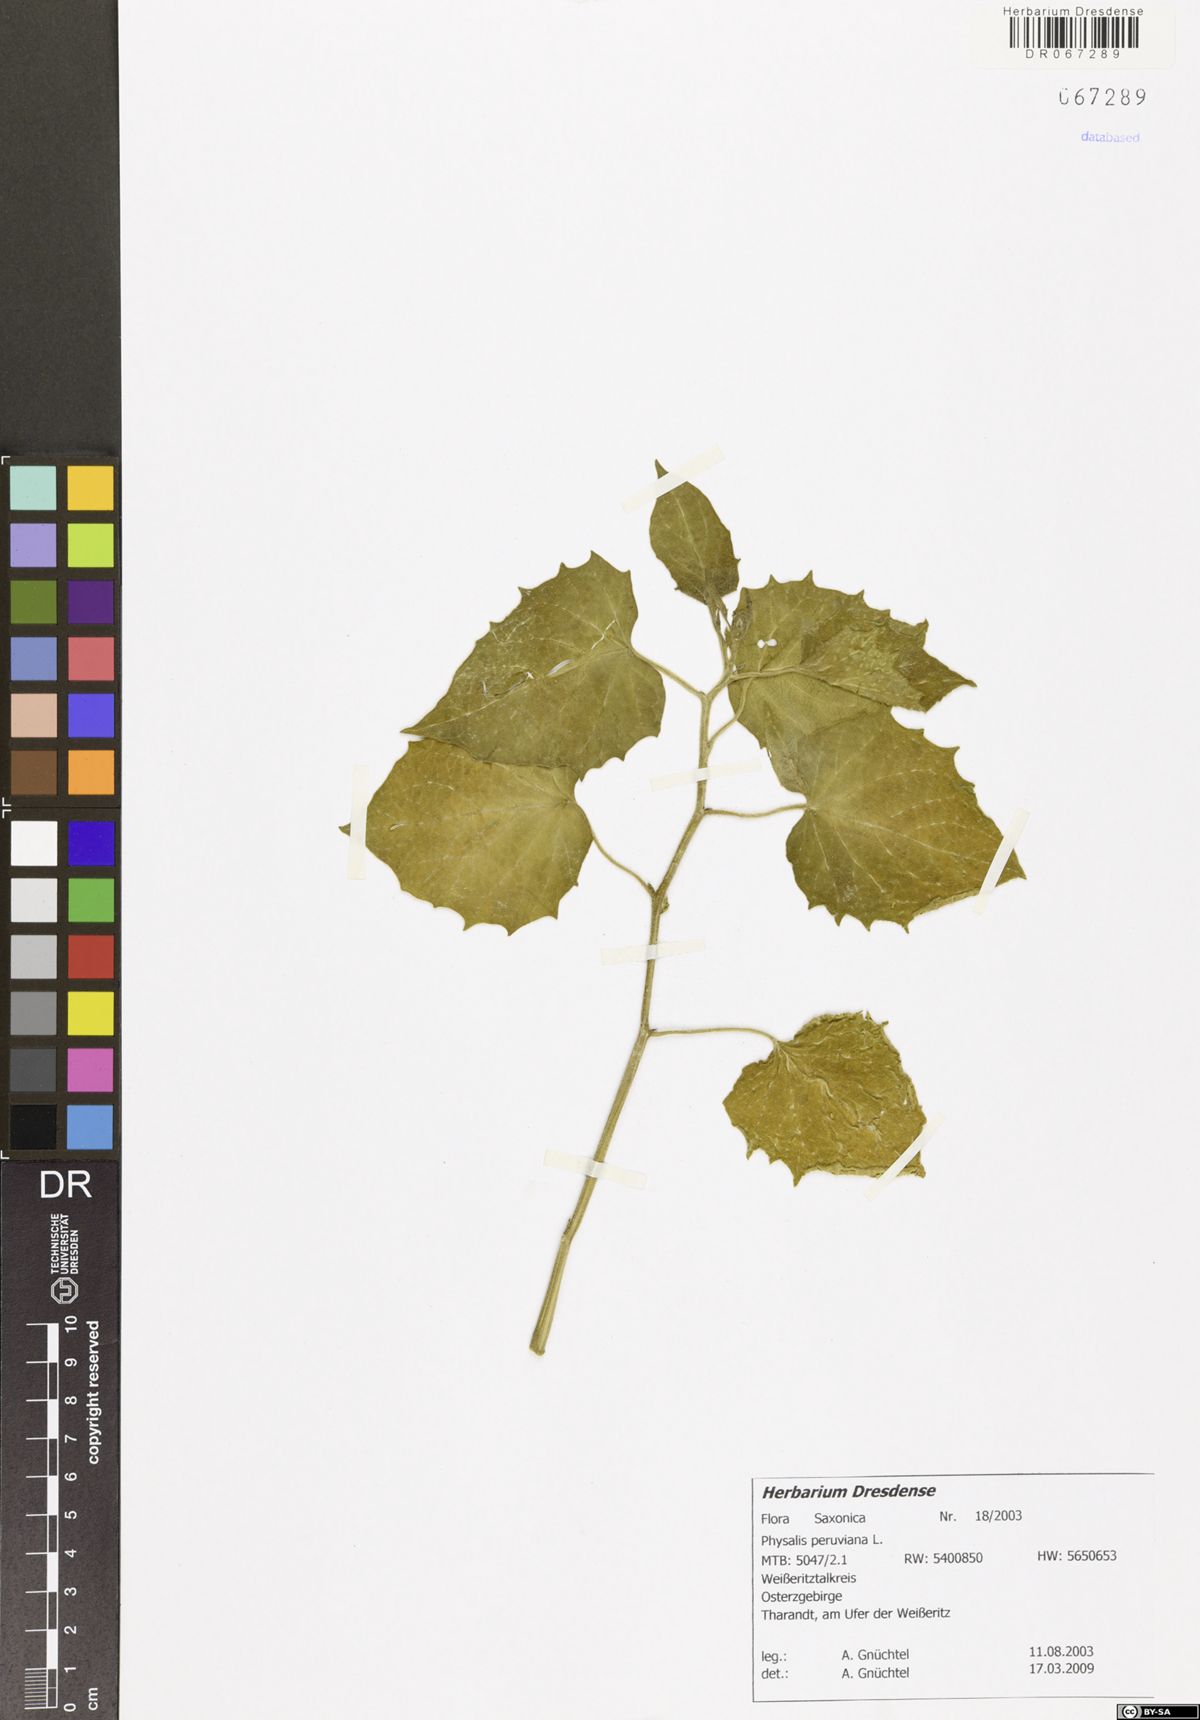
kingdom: Plantae
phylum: Tracheophyta
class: Magnoliopsida
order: Solanales
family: Solanaceae
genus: Physalis
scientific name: Physalis peruviana
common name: Cape-gooseberry
